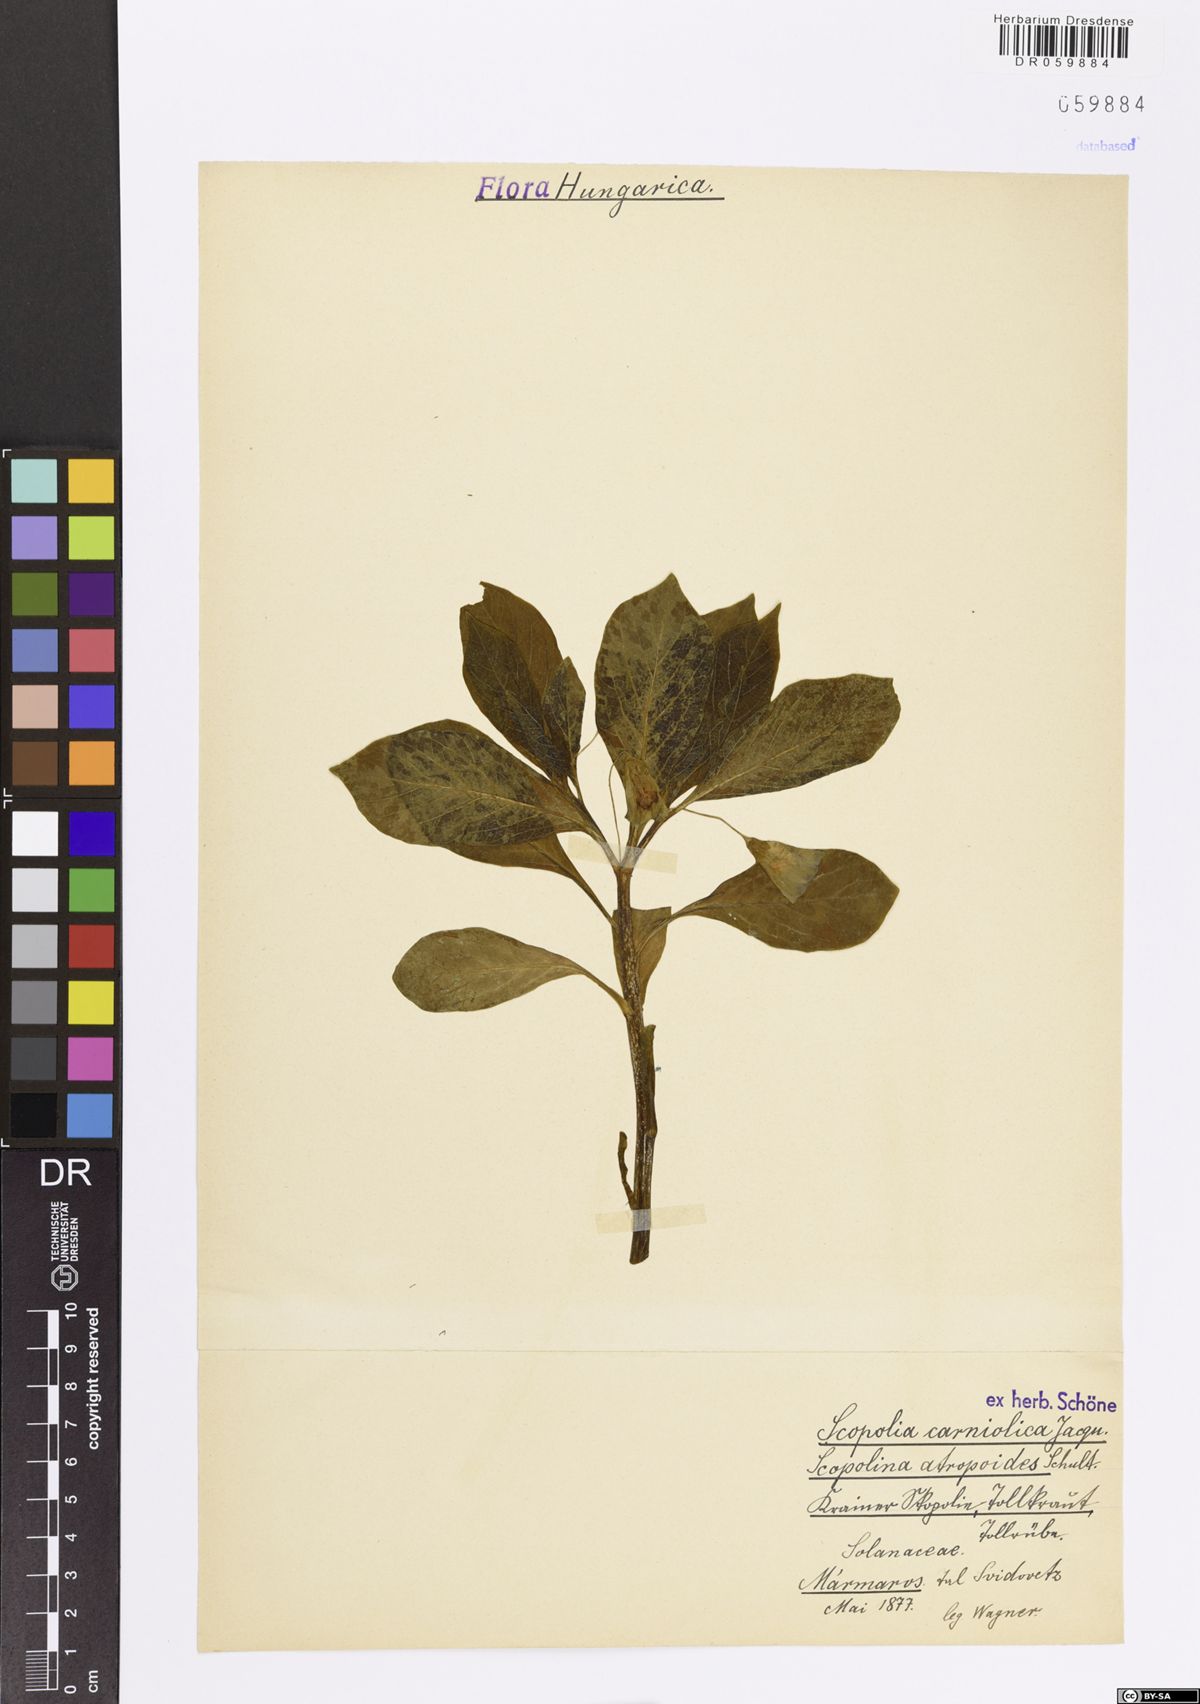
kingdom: Plantae
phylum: Tracheophyta
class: Magnoliopsida
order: Solanales
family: Solanaceae
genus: Scopolia
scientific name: Scopolia carniolica
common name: Scopolia
